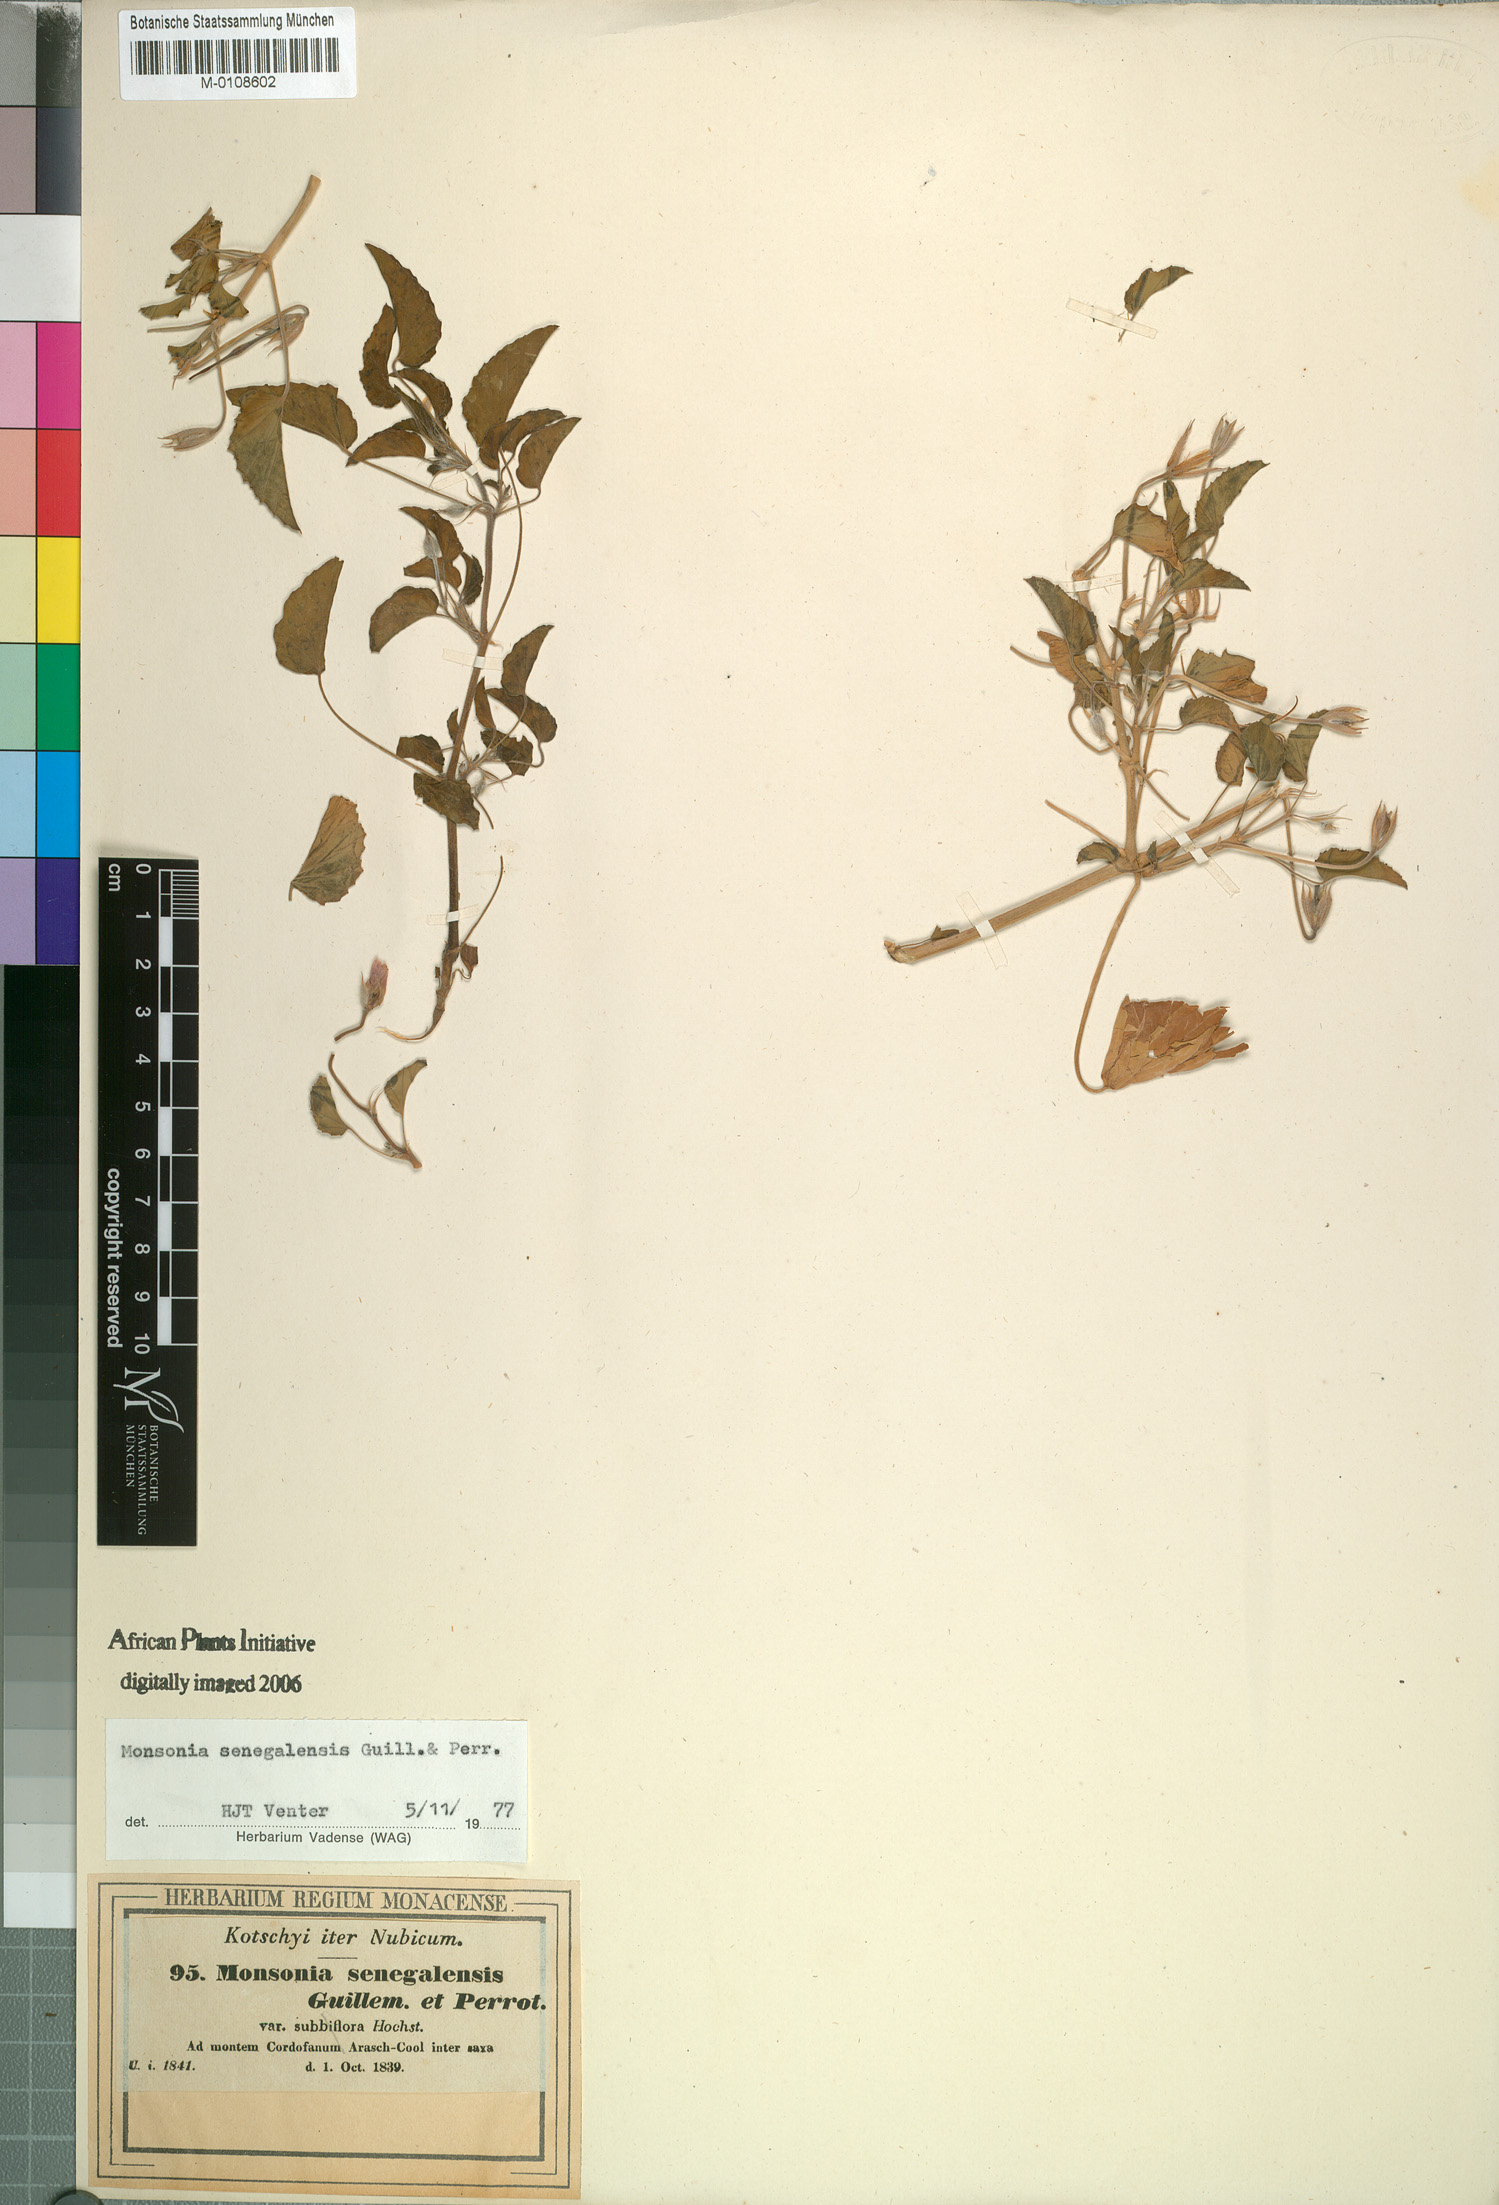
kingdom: Plantae
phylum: Tracheophyta
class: Magnoliopsida
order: Geraniales
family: Geraniaceae
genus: Monsonia
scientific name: Monsonia senegalensis
